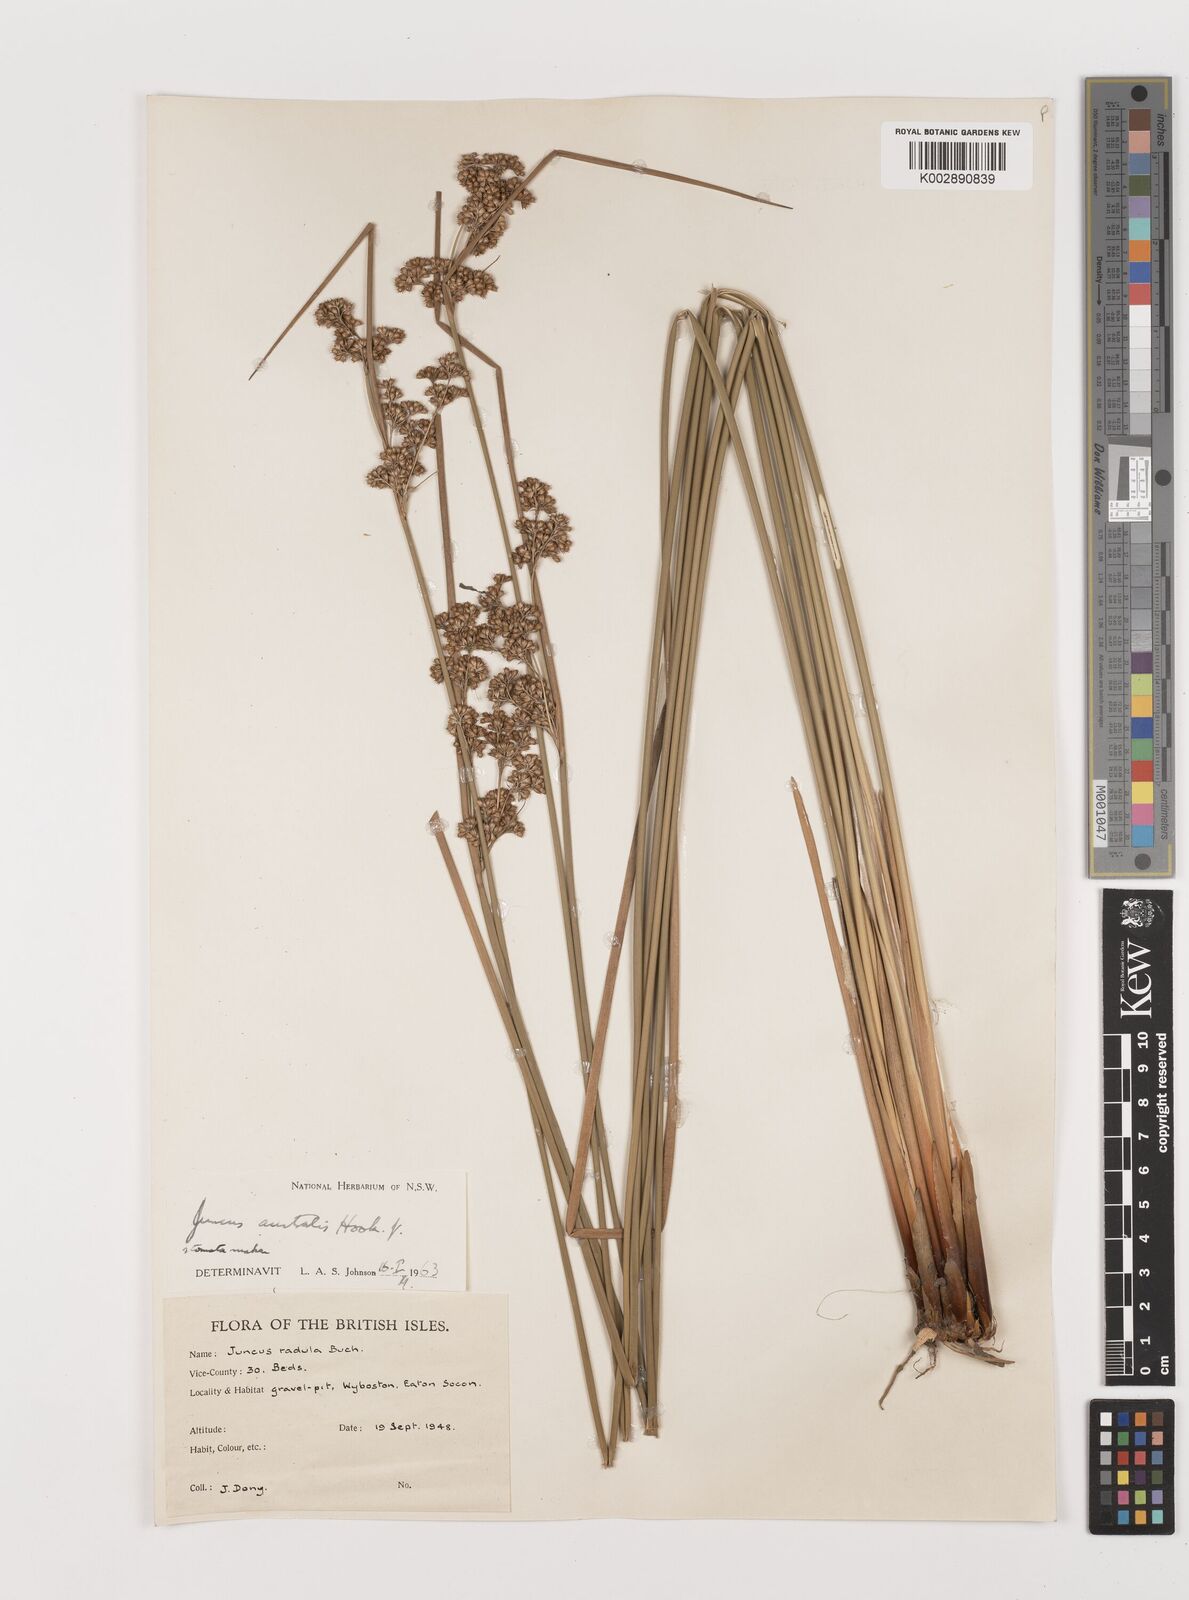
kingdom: Plantae
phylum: Tracheophyta
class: Liliopsida
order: Poales
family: Juncaceae
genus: Juncus
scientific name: Juncus australis
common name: Austral rush
